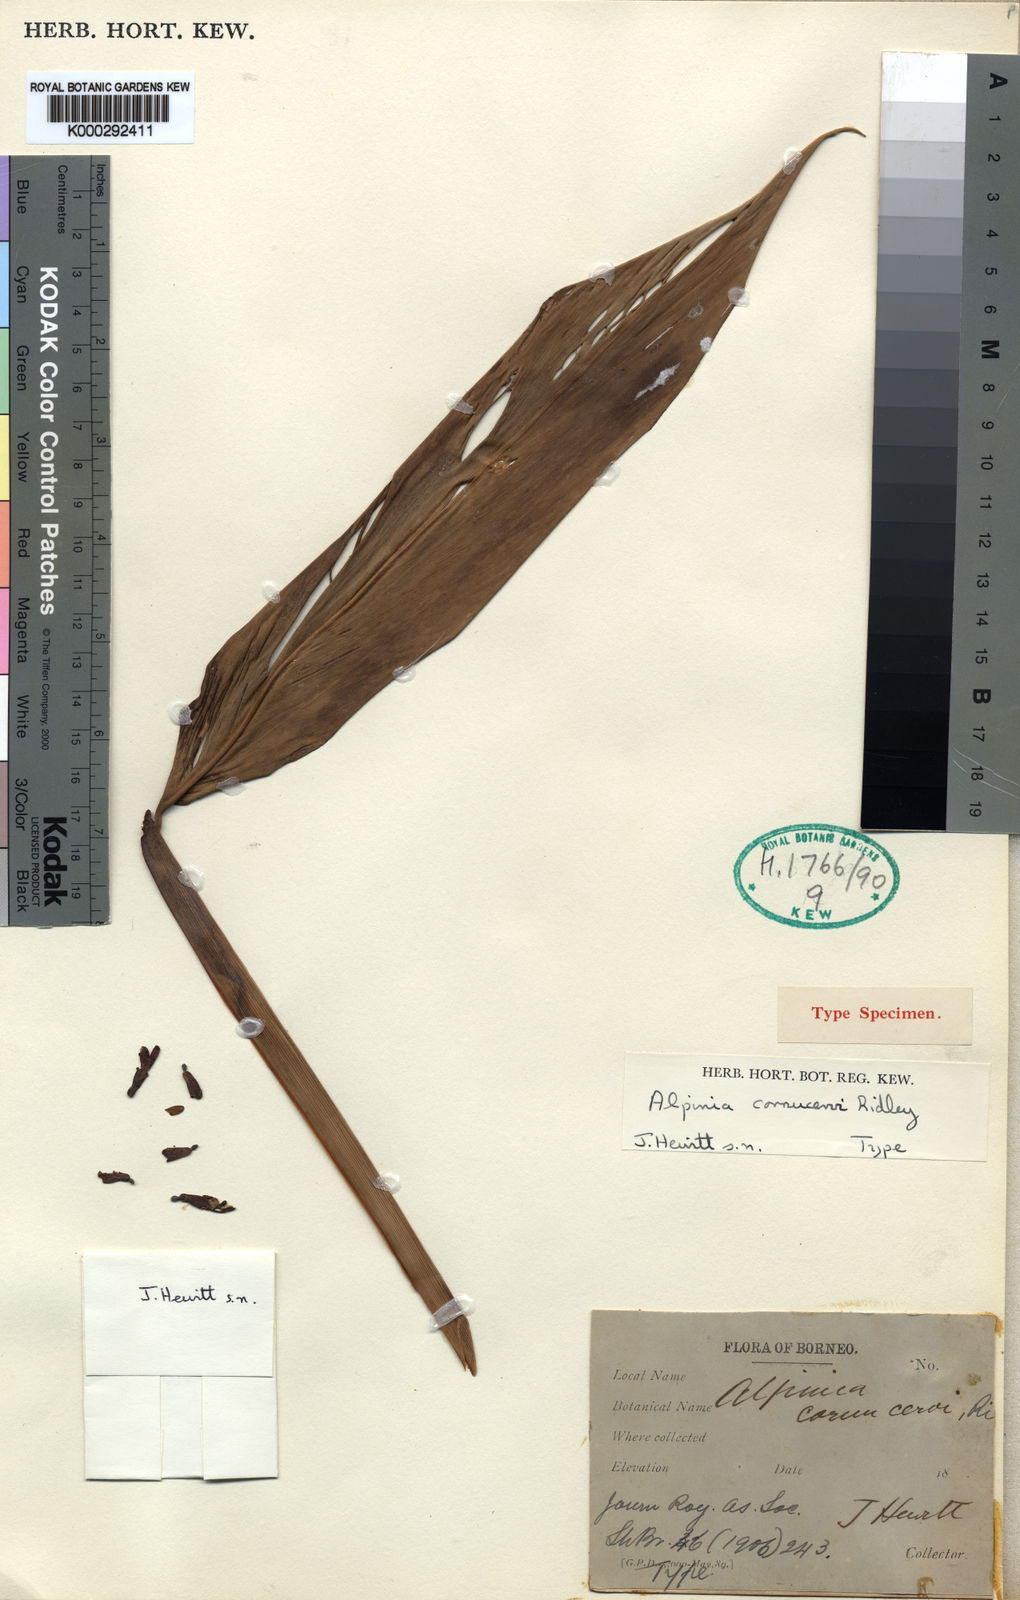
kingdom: Plantae
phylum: Tracheophyta
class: Liliopsida
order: Zingiberales
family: Zingiberaceae
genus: Alpinia
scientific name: Alpinia aquatica
